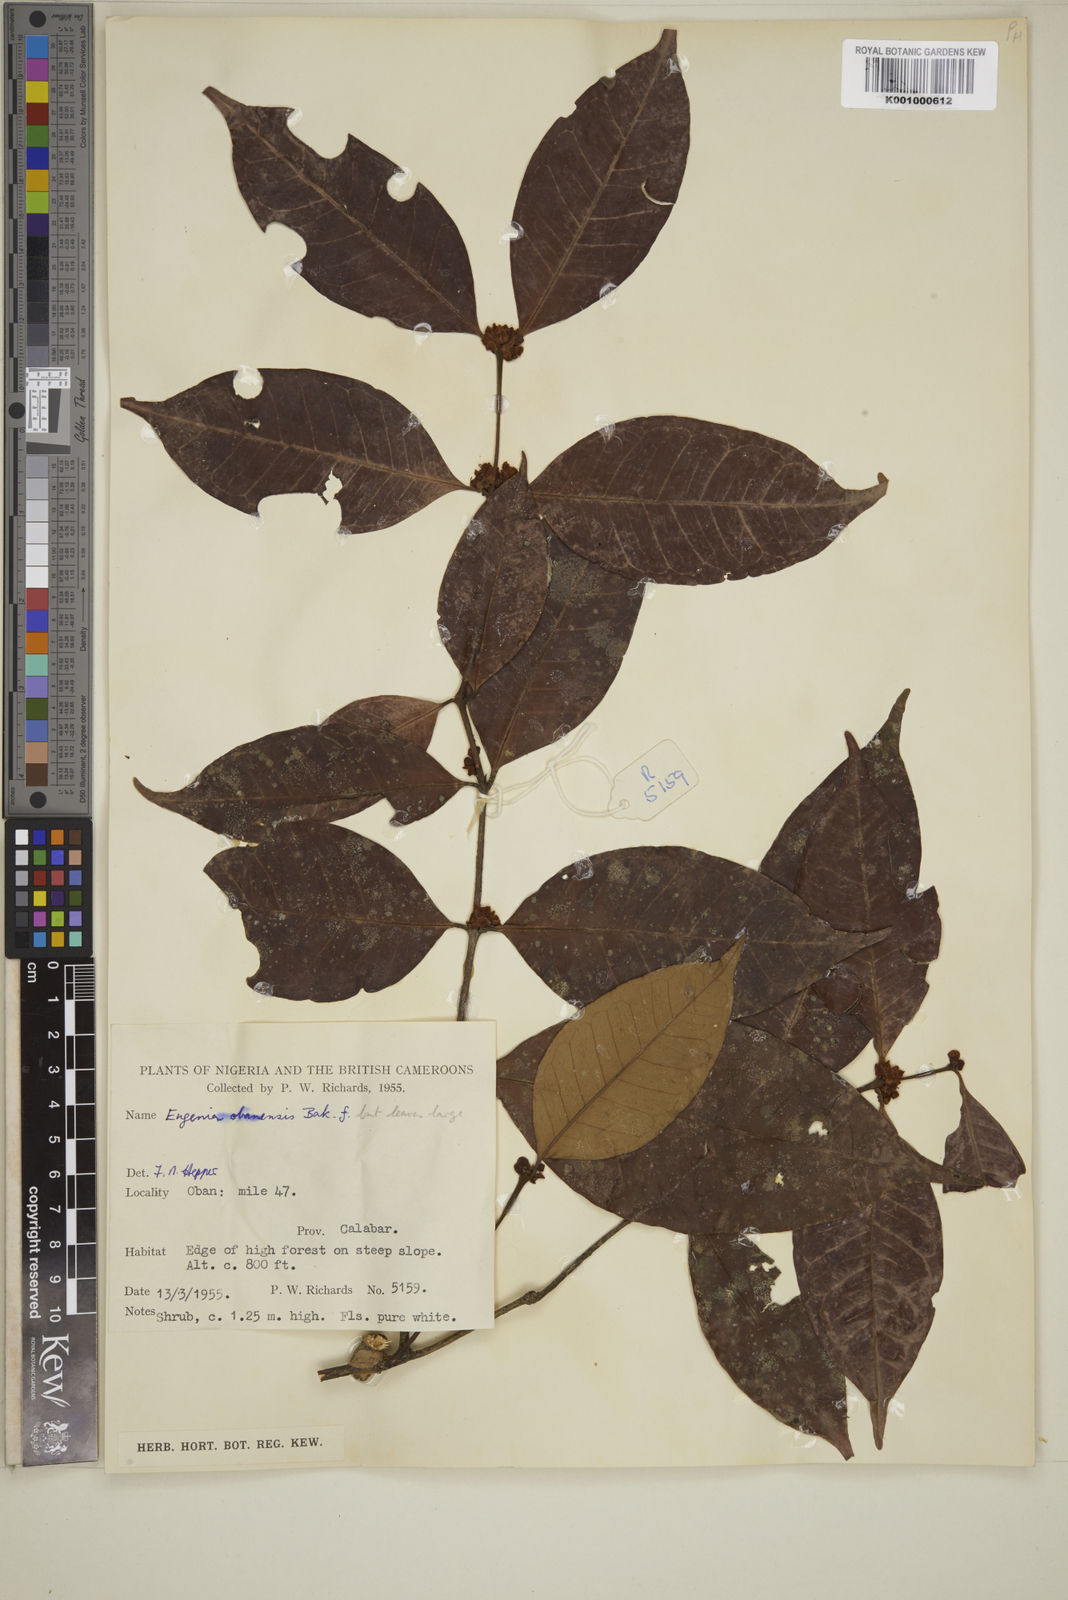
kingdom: Plantae
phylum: Tracheophyta
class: Magnoliopsida
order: Myrtales
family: Myrtaceae
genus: Eugenia
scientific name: Eugenia obanensis
